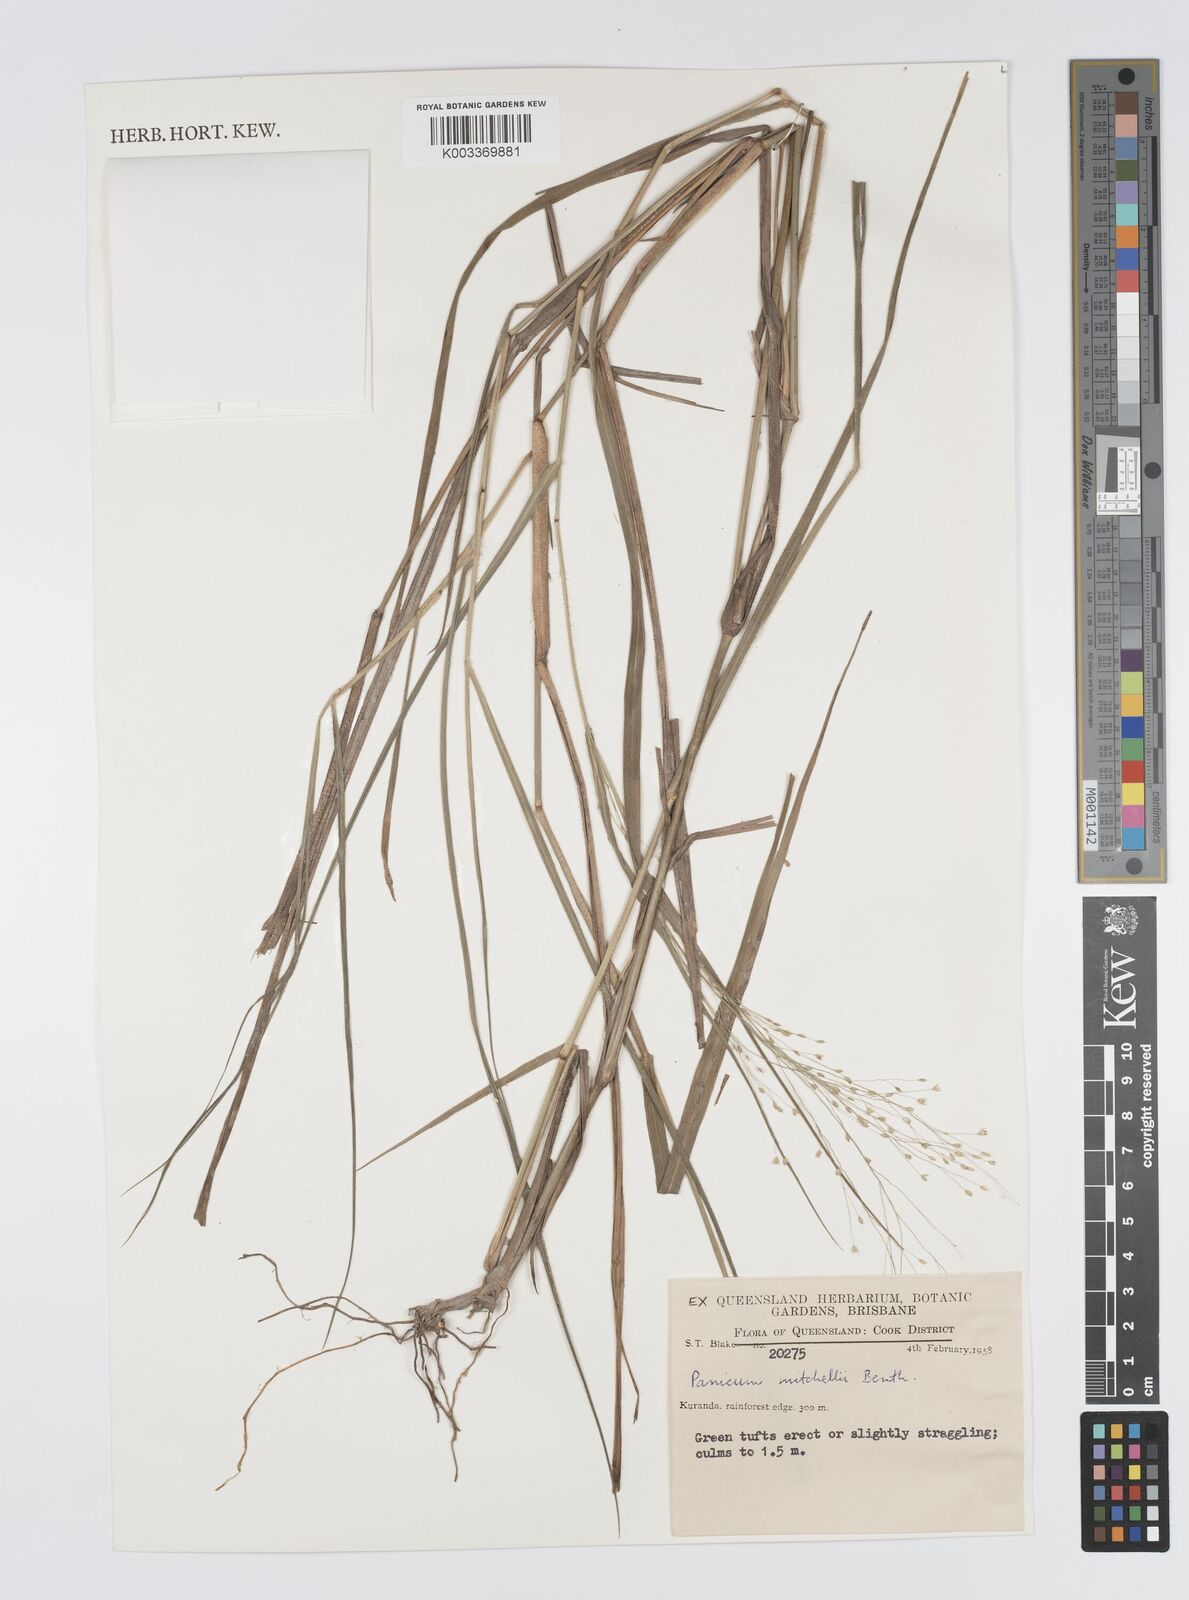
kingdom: Plantae
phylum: Tracheophyta
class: Liliopsida
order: Poales
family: Poaceae
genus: Panicum
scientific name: Panicum mitchellii
